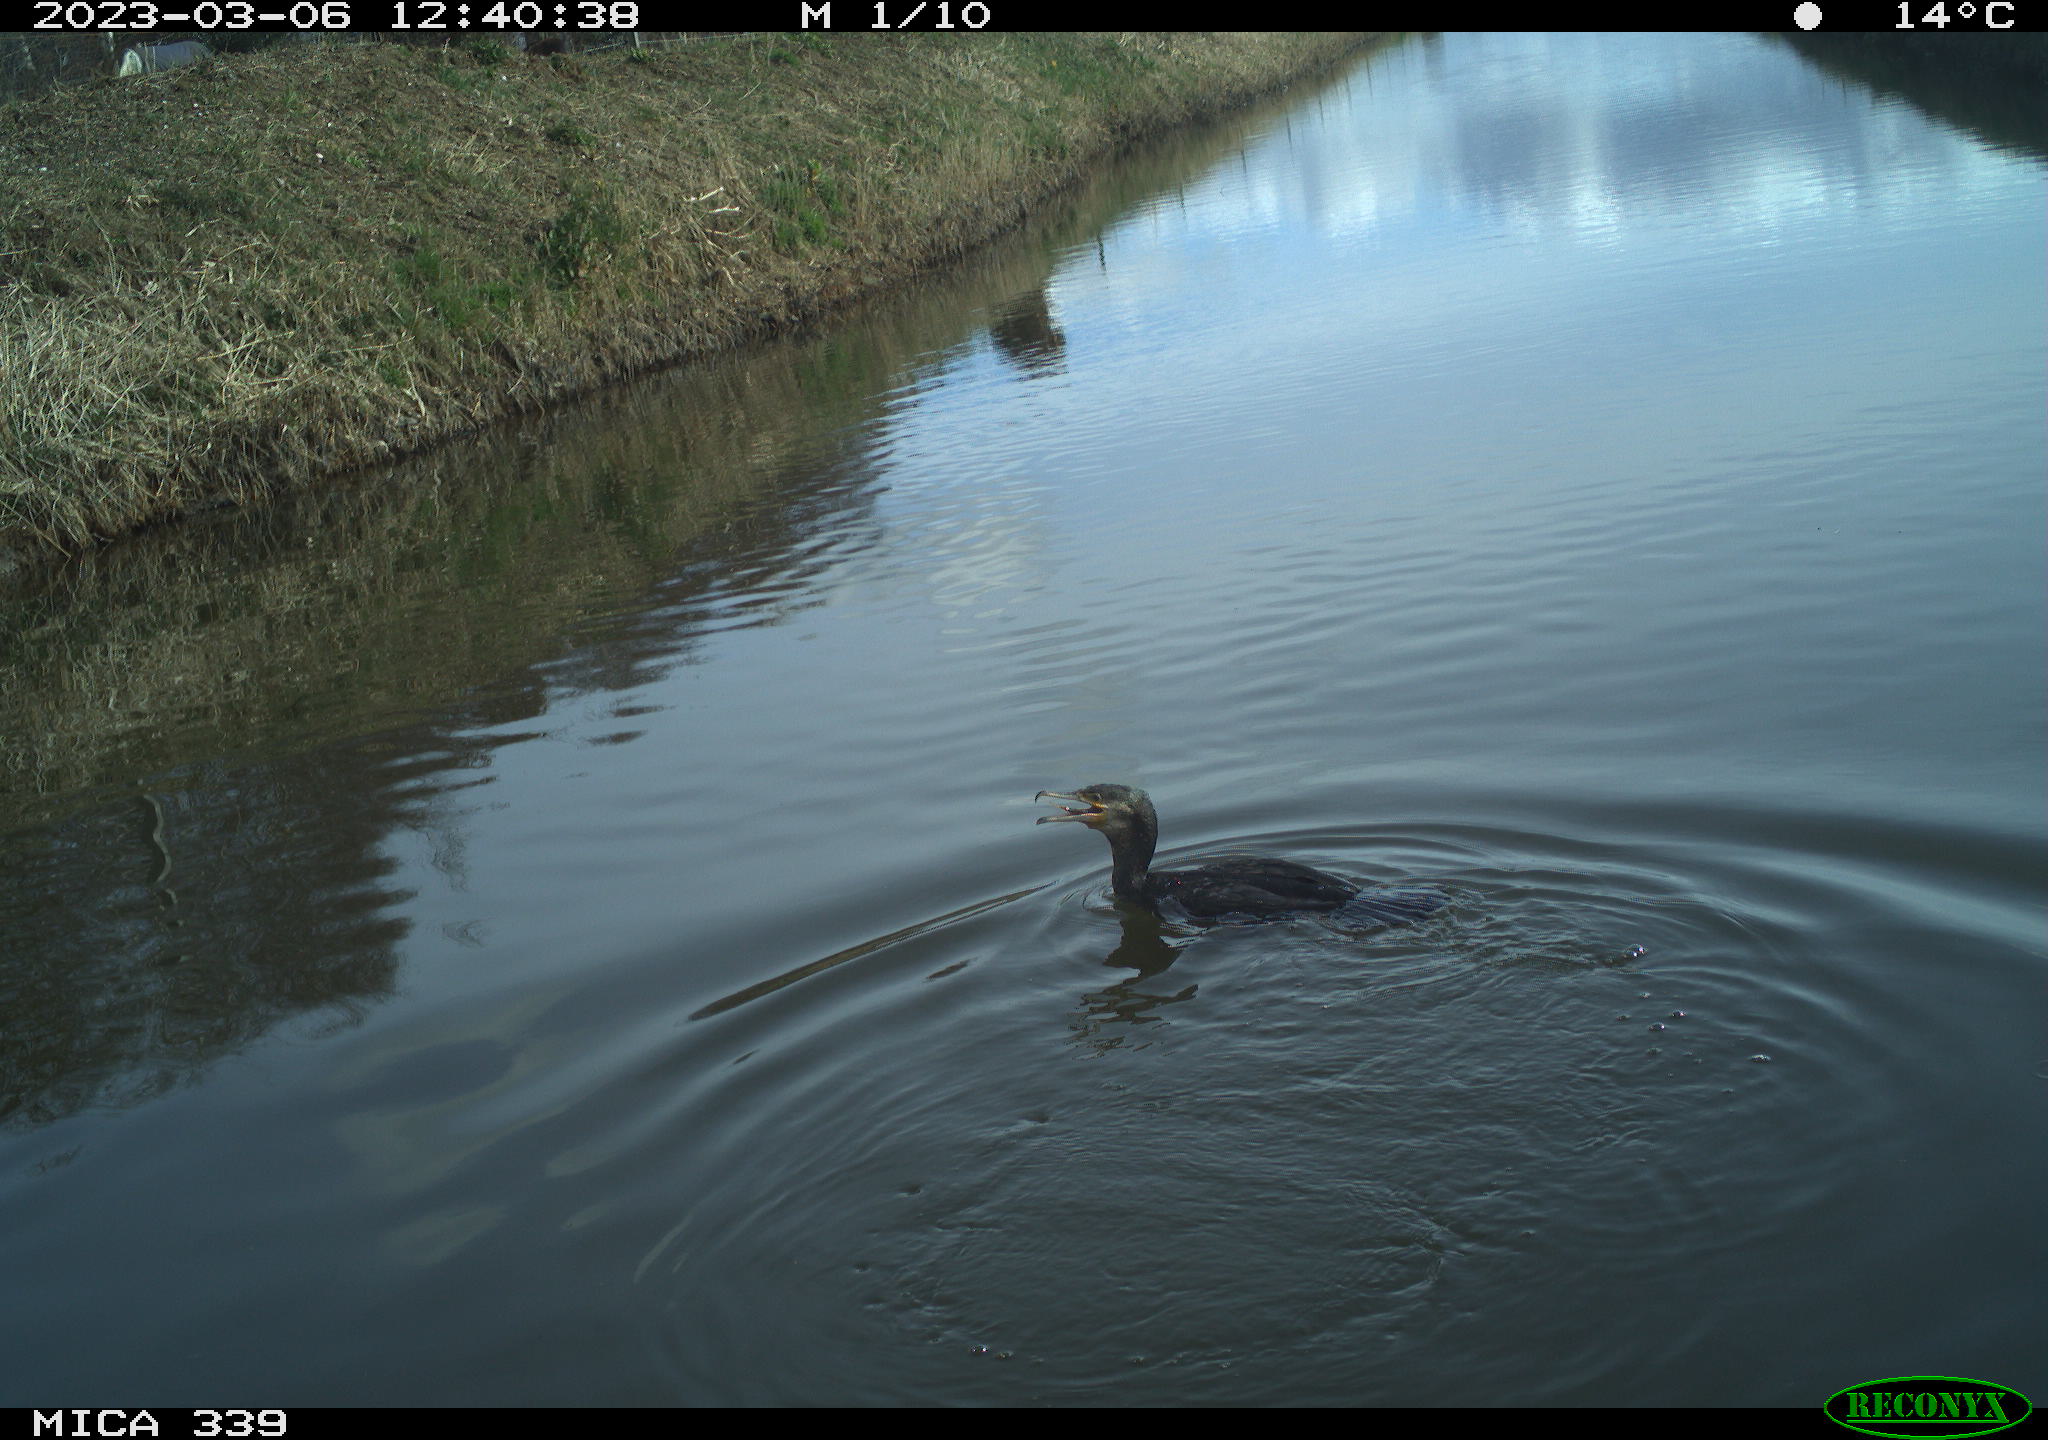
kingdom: Animalia
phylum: Chordata
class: Aves
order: Suliformes
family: Phalacrocoracidae
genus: Phalacrocorax
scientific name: Phalacrocorax carbo
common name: Great cormorant
